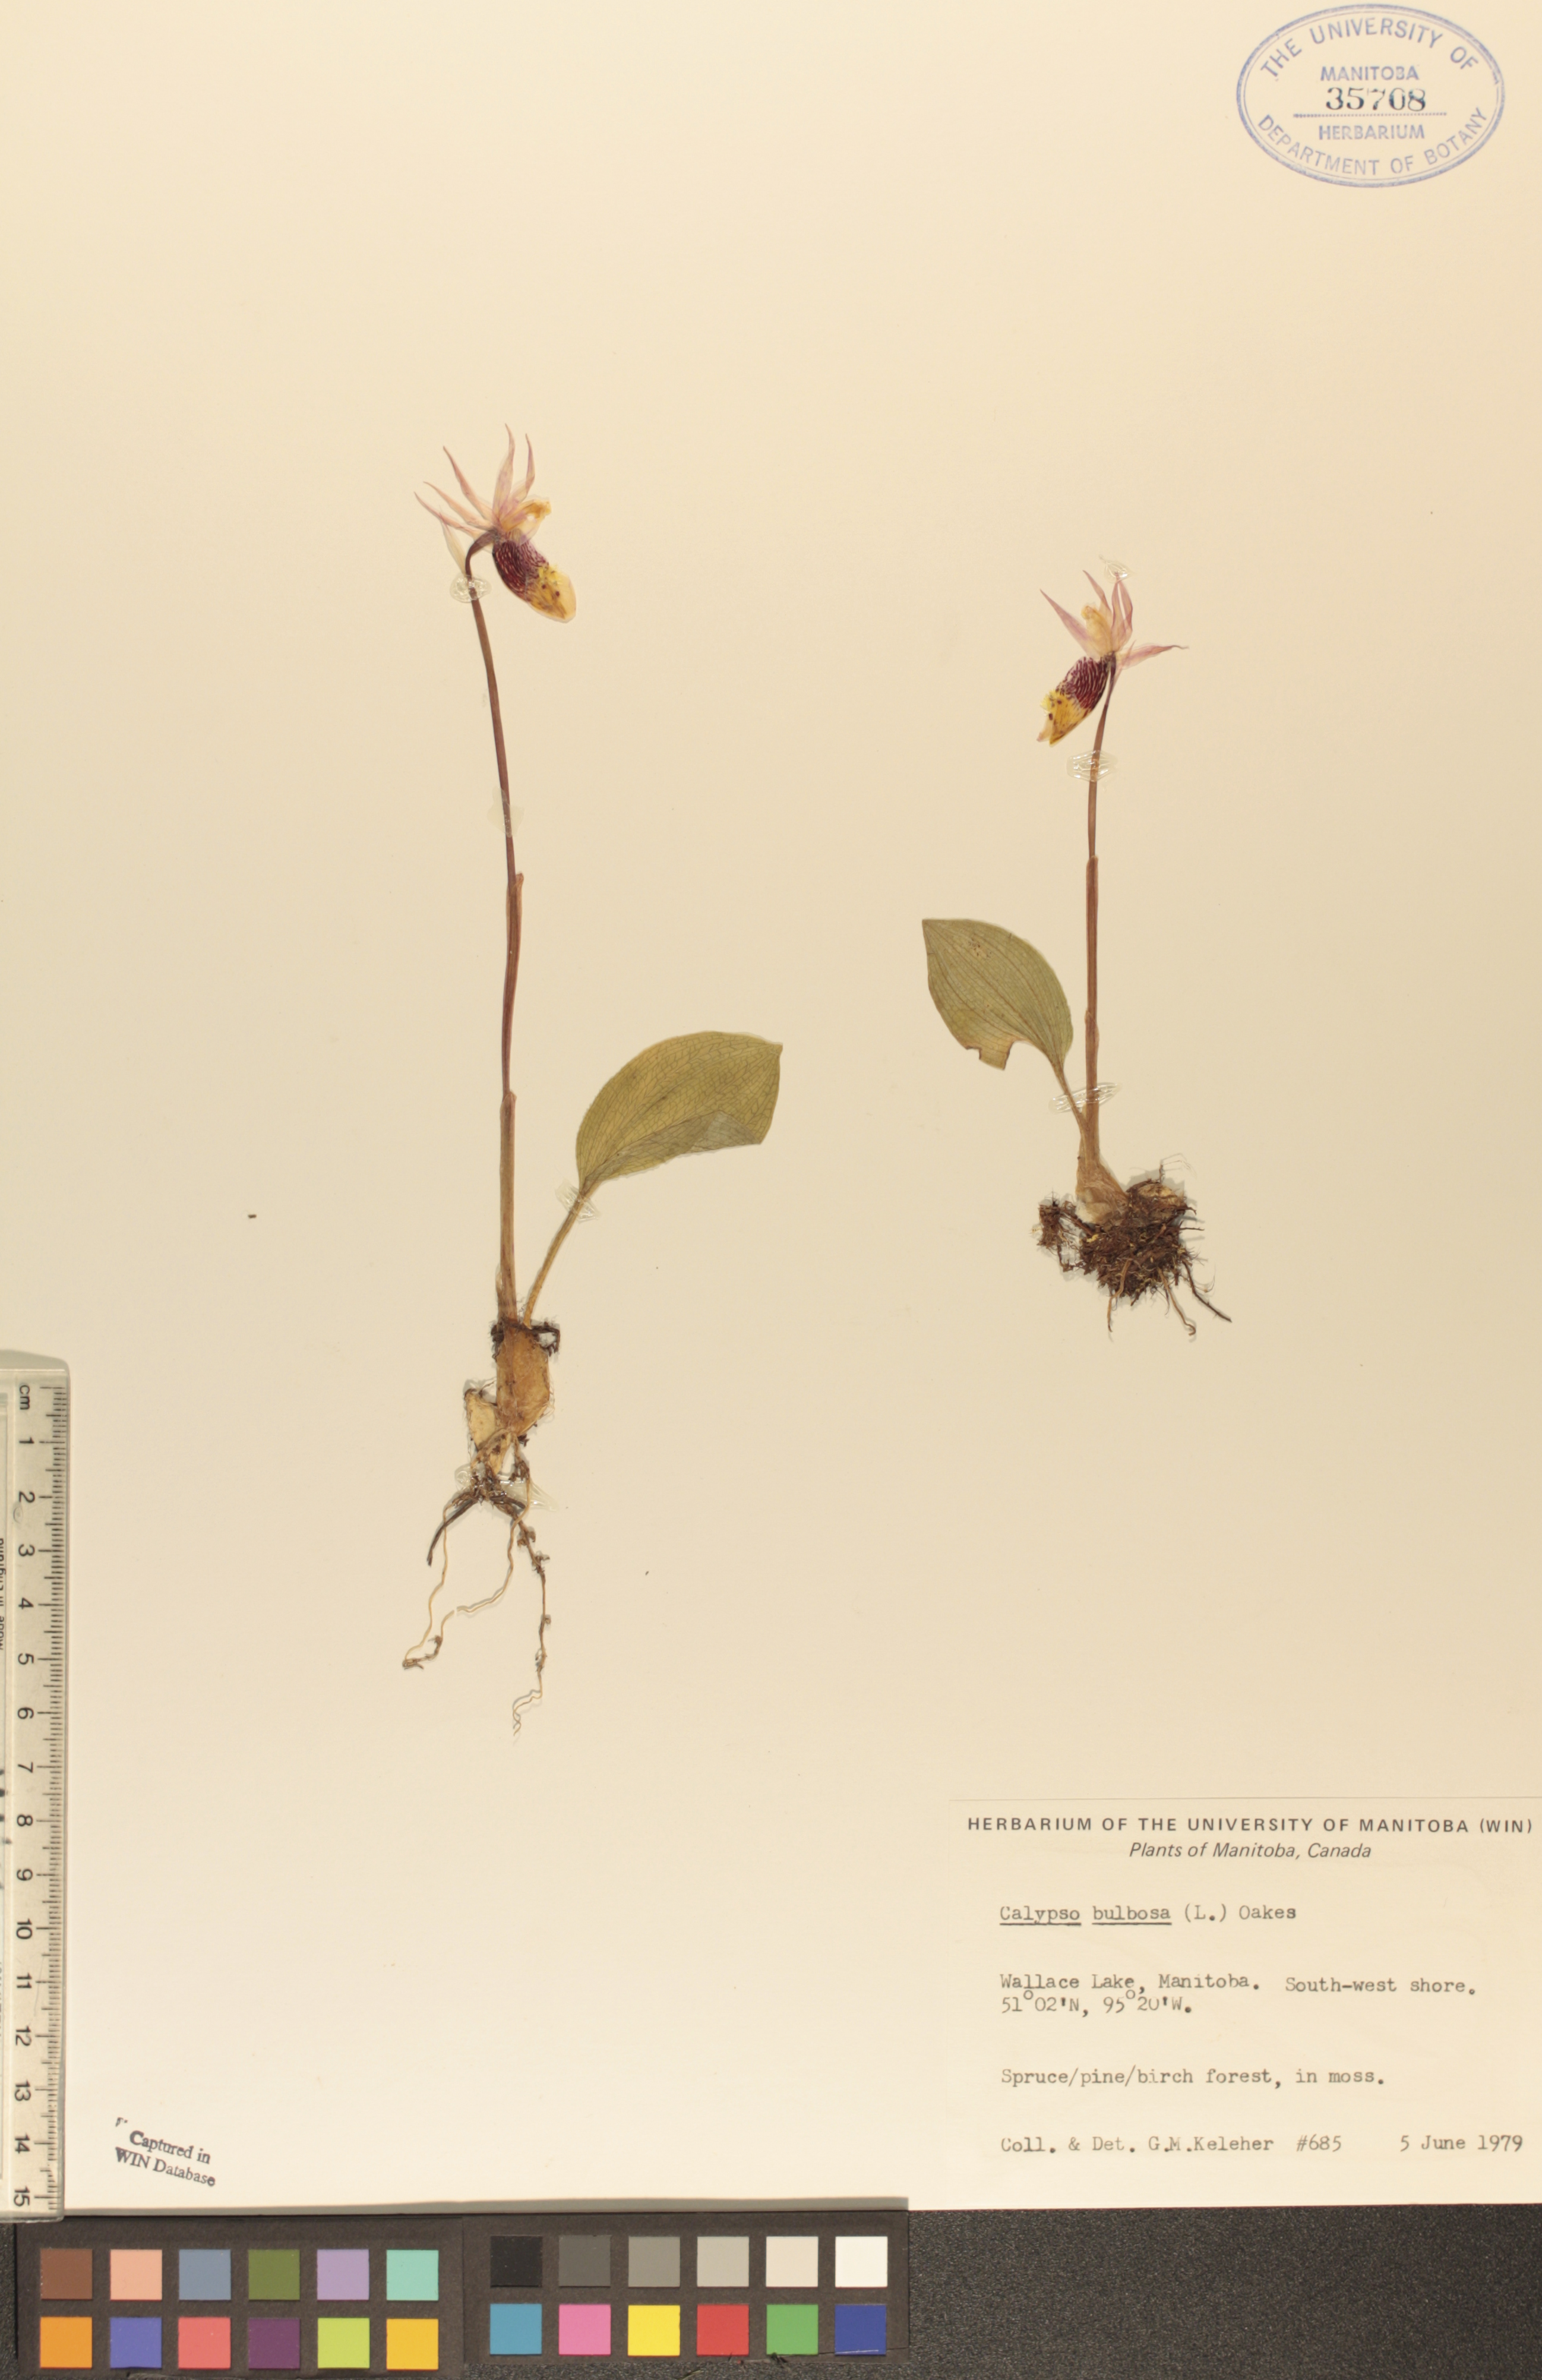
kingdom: Plantae
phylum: Tracheophyta
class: Liliopsida
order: Asparagales
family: Orchidaceae
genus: Calypso
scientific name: Calypso bulbosa
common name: Calypso
